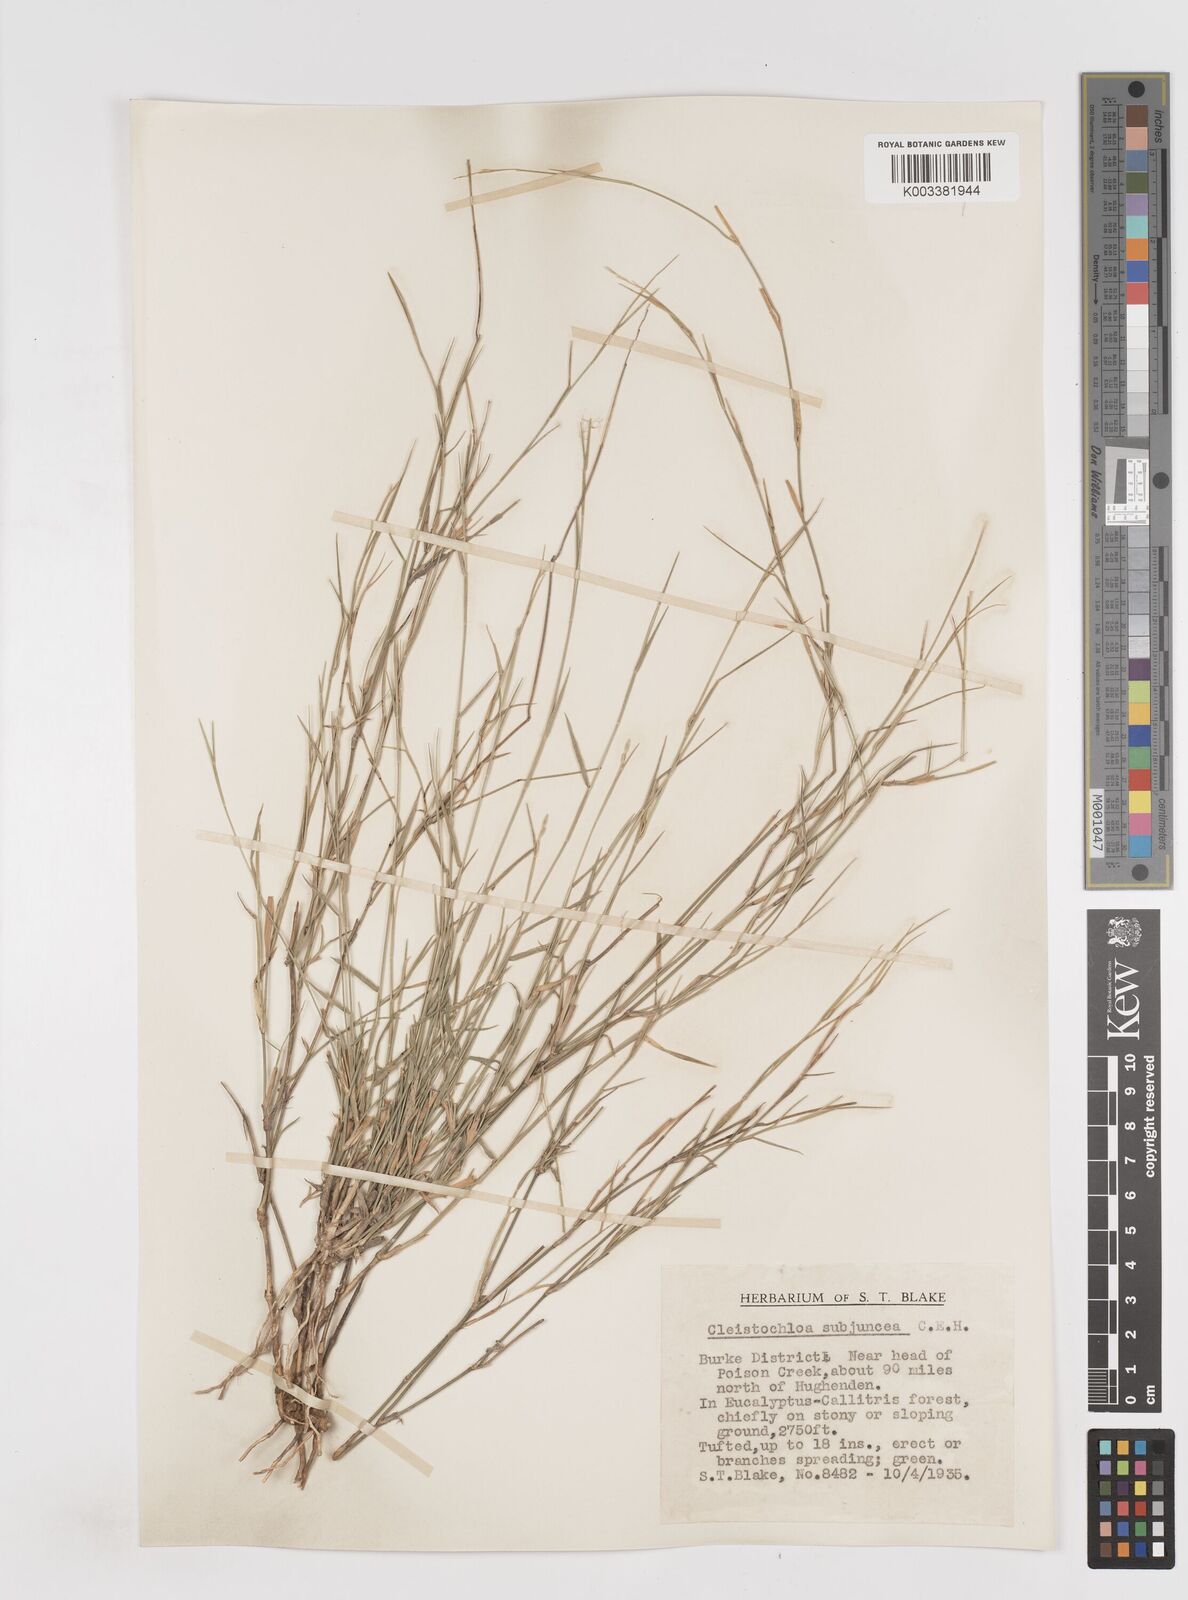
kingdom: Plantae
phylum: Tracheophyta
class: Liliopsida
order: Poales
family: Poaceae
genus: Cleistochloa
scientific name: Cleistochloa subjuncea
